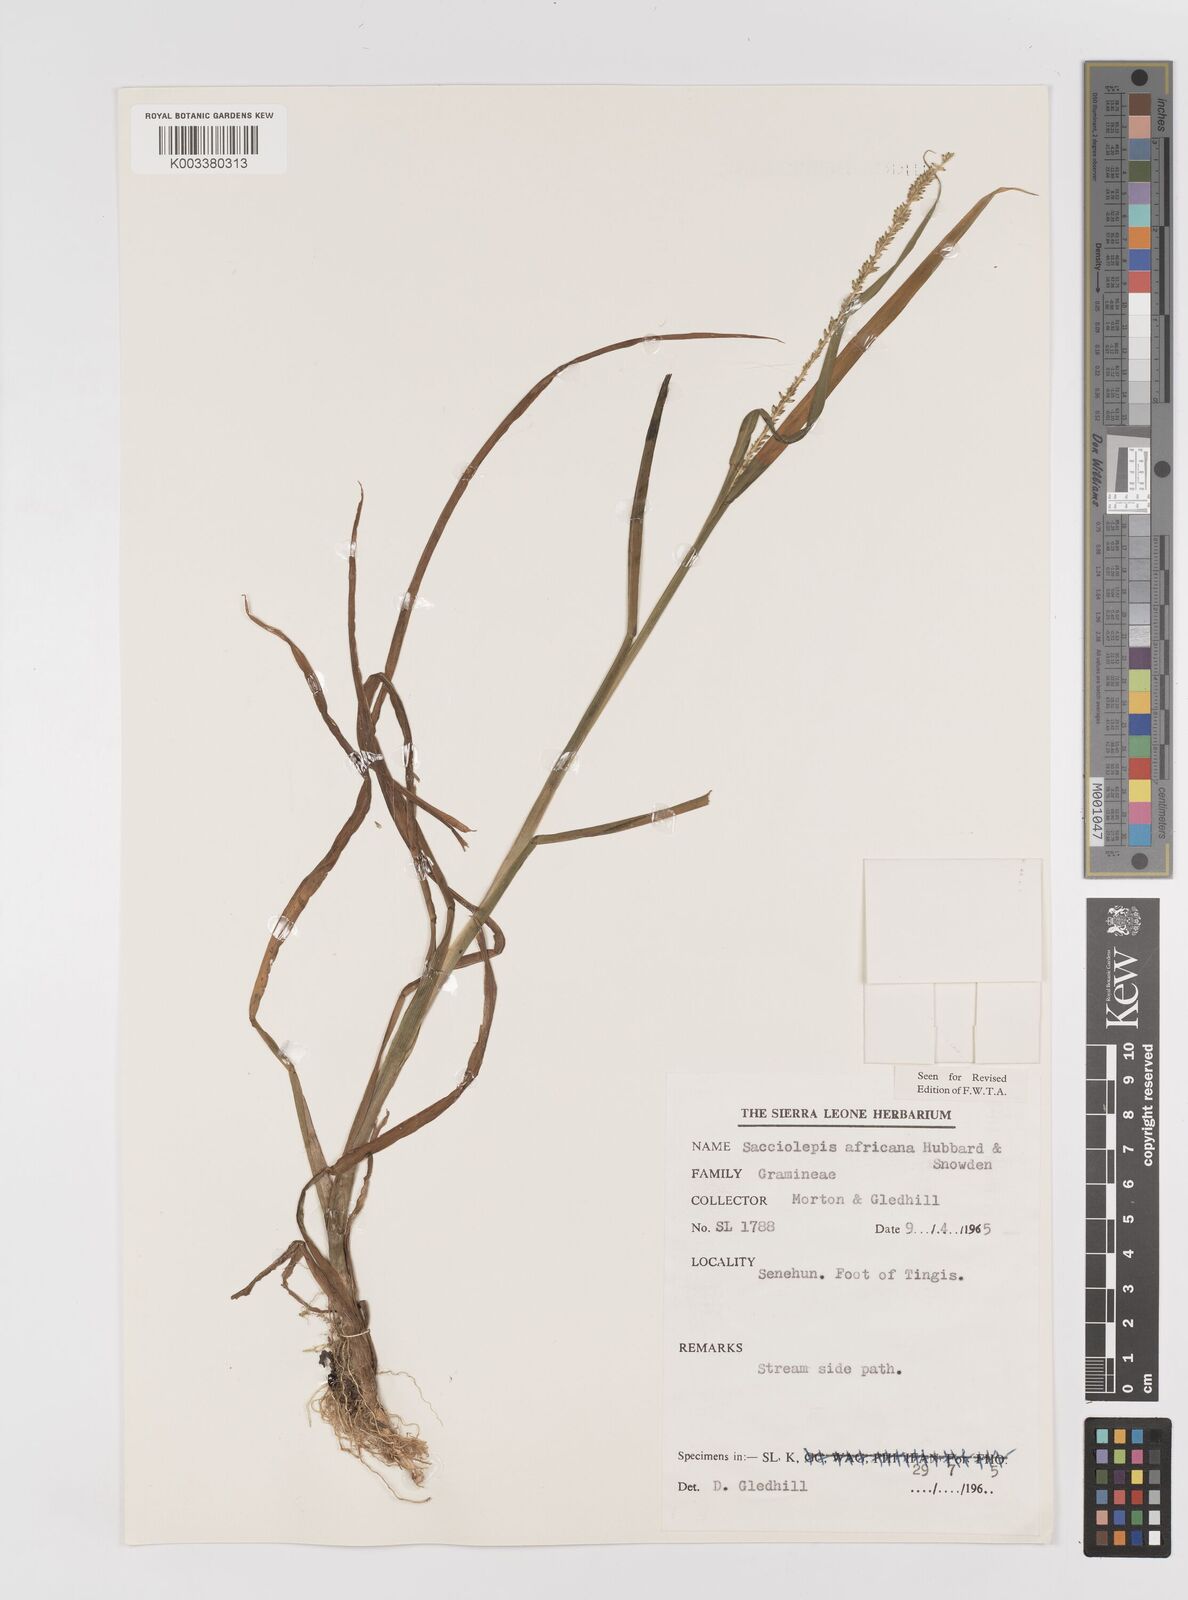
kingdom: Plantae
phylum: Tracheophyta
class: Liliopsida
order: Poales
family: Poaceae
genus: Sacciolepis
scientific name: Sacciolepis africana
